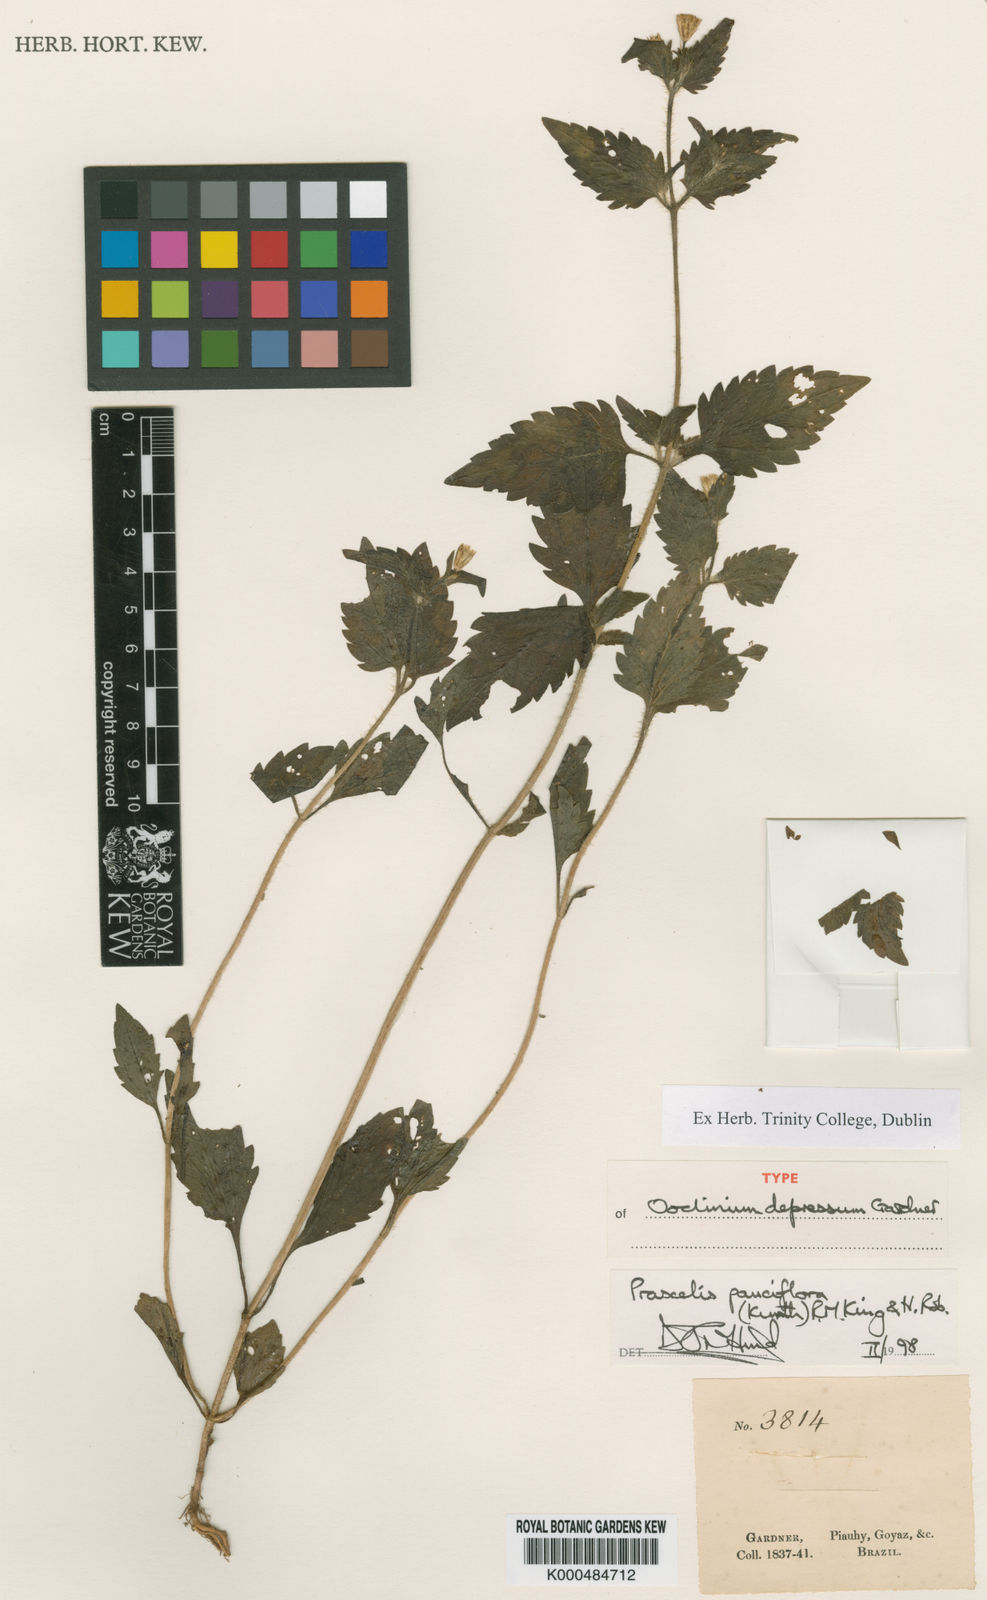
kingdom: Plantae
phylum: Tracheophyta
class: Magnoliopsida
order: Asterales
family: Asteraceae
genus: Praxelis
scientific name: Praxelis diffusa
